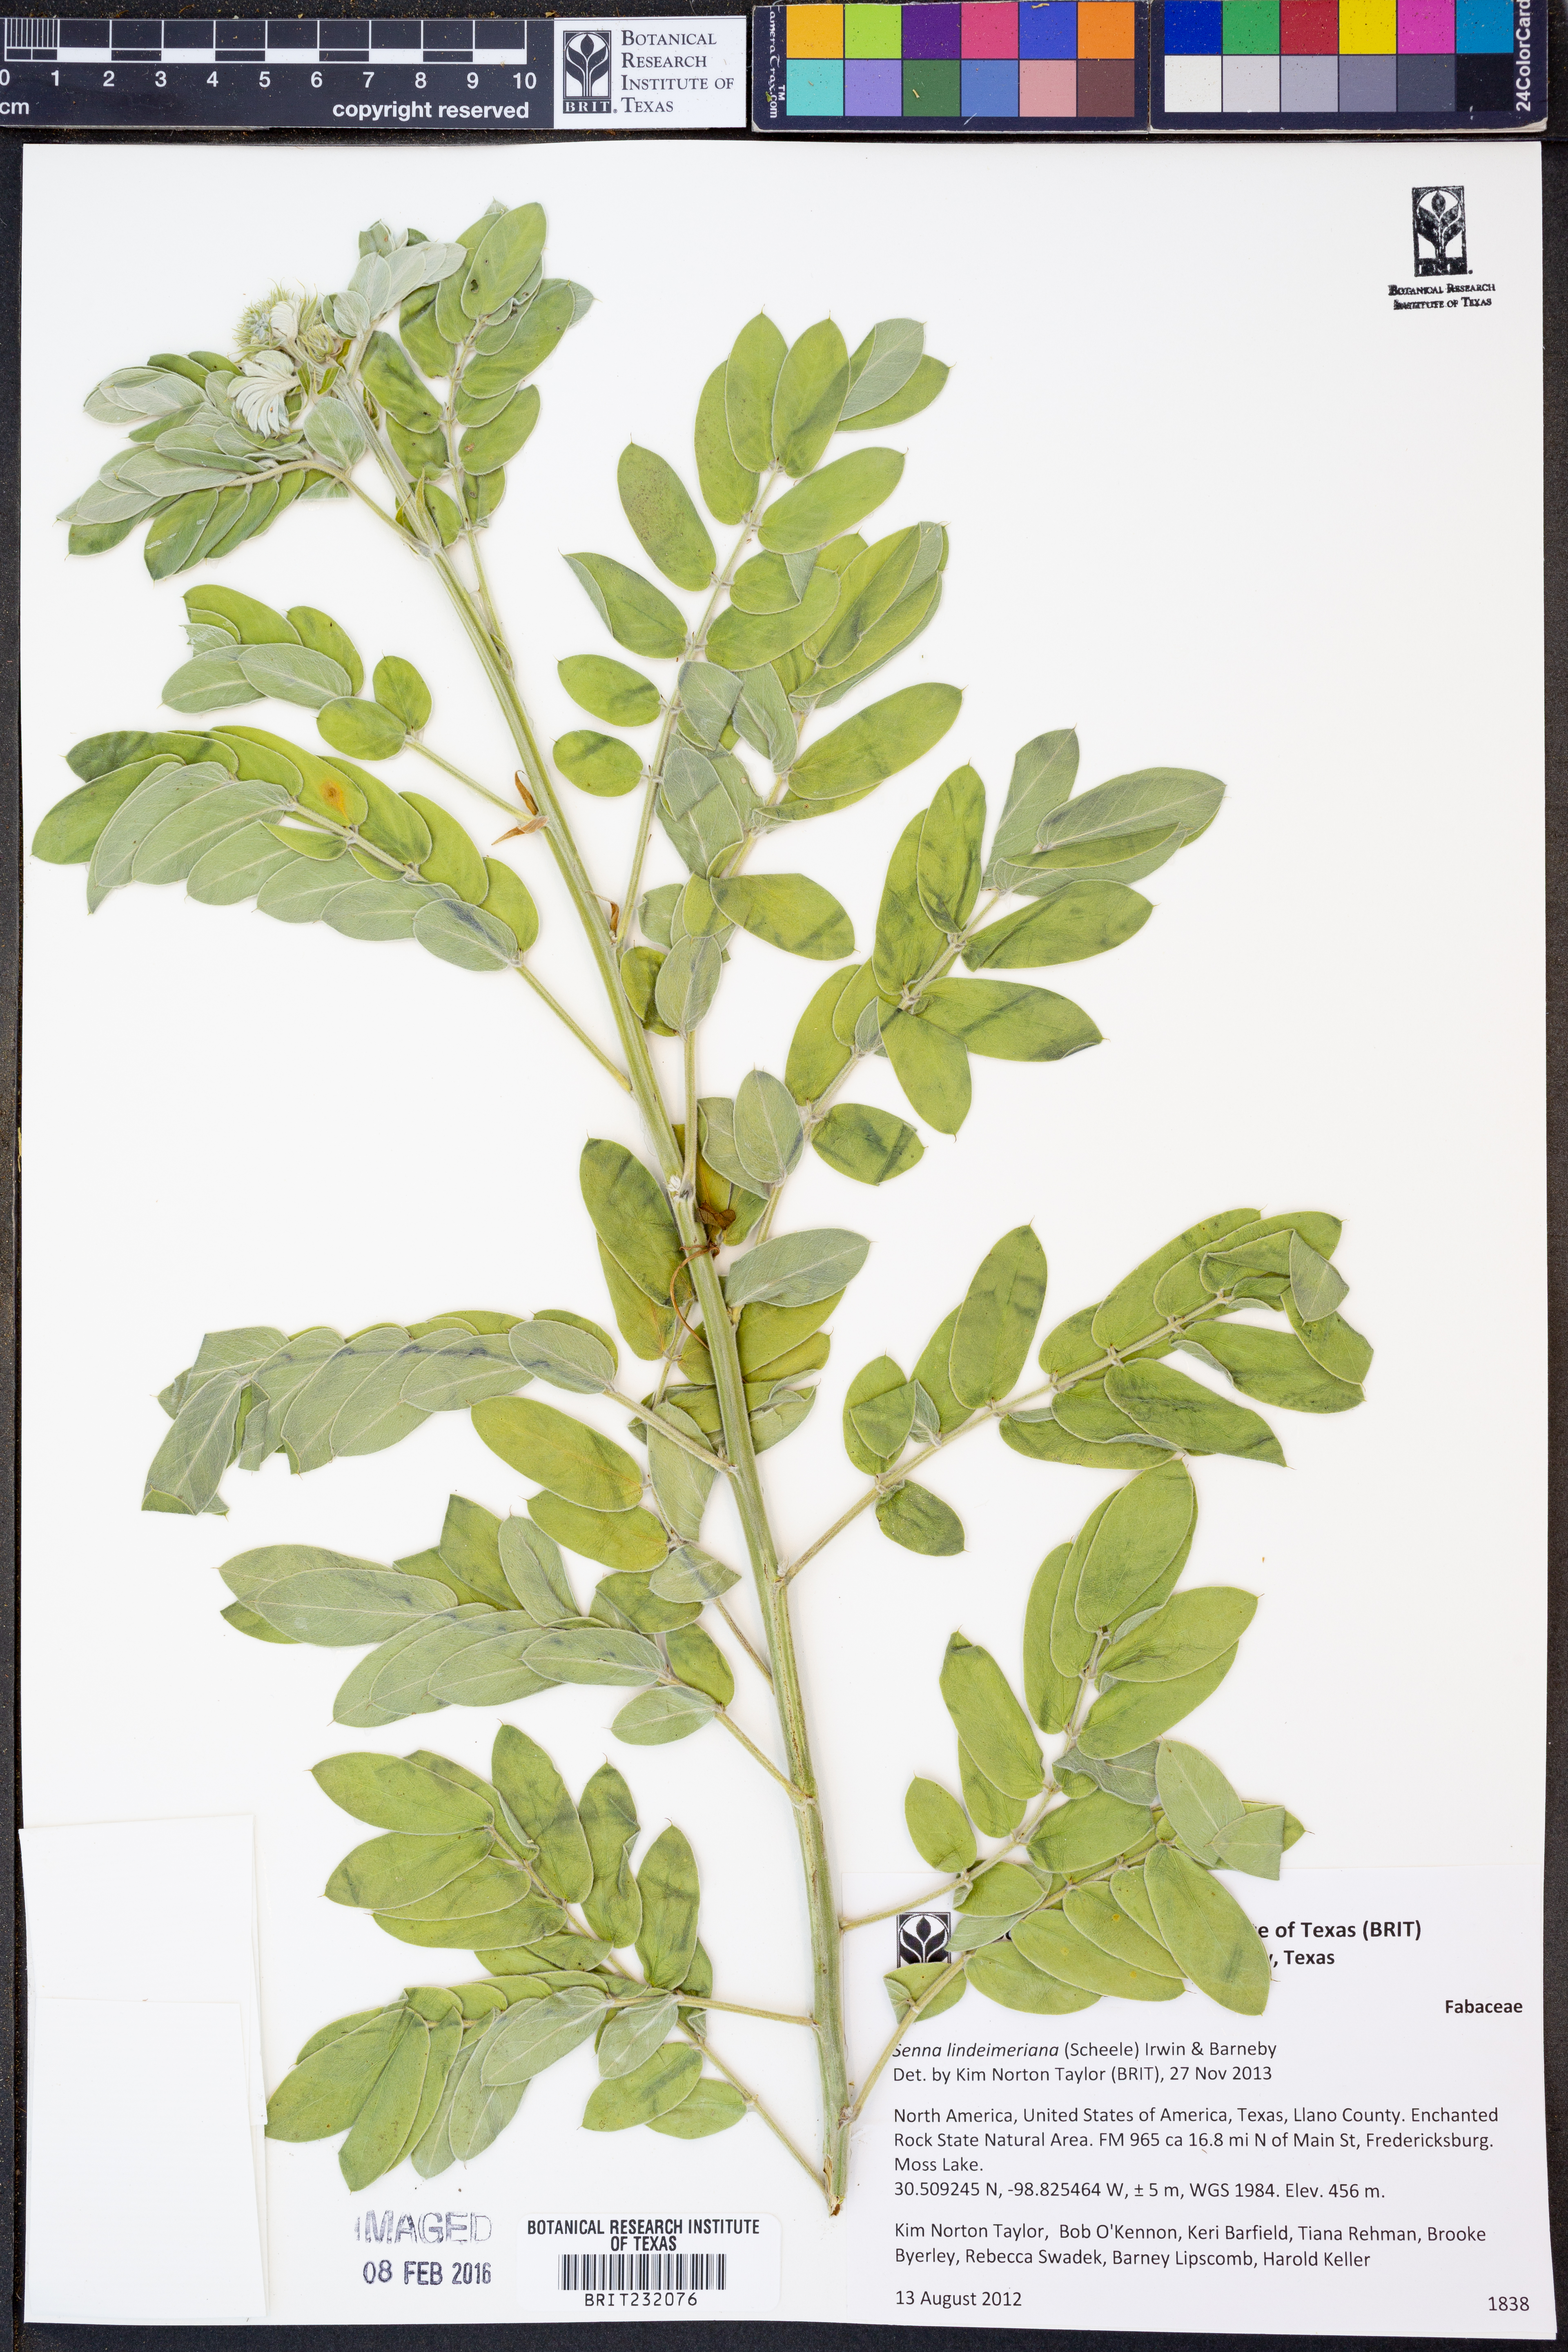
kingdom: Plantae
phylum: Tracheophyta
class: Magnoliopsida
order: Fabales
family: Fabaceae
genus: Senna
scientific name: Senna lindheimeriana
